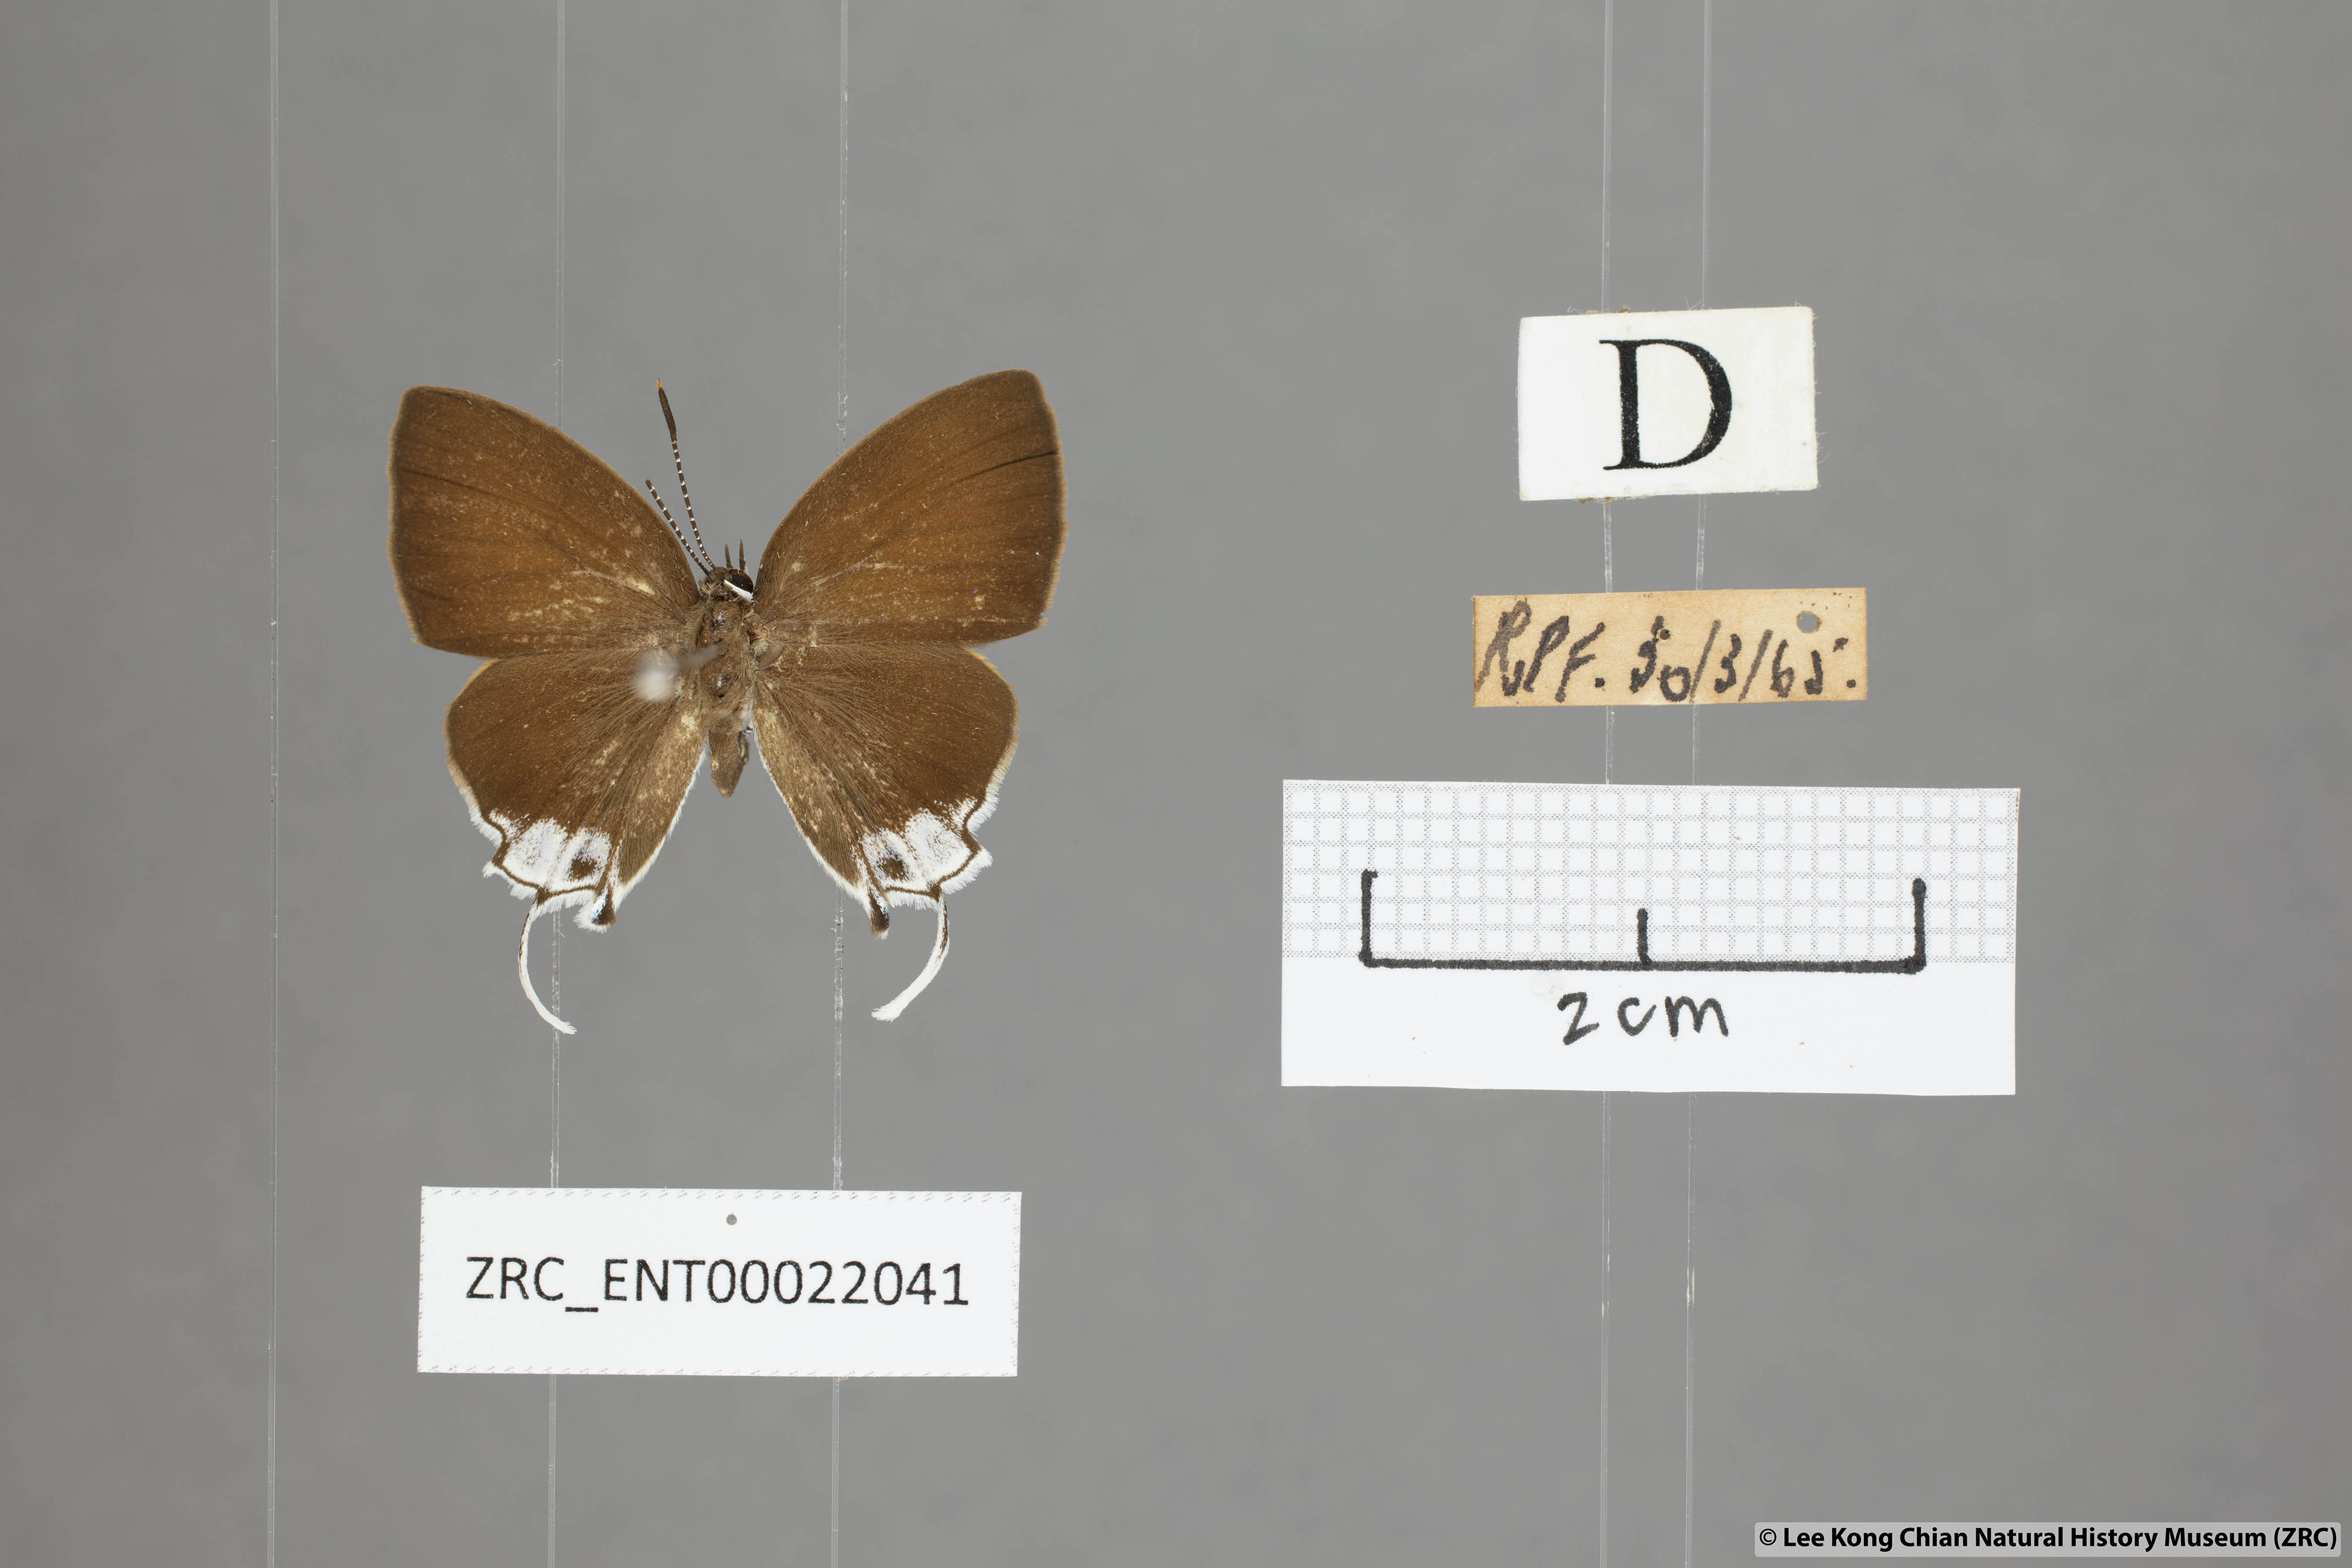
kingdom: Animalia
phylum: Arthropoda
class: Insecta
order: Lepidoptera
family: Lycaenidae
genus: Sithon
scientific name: Sithon nedymond
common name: Plush
